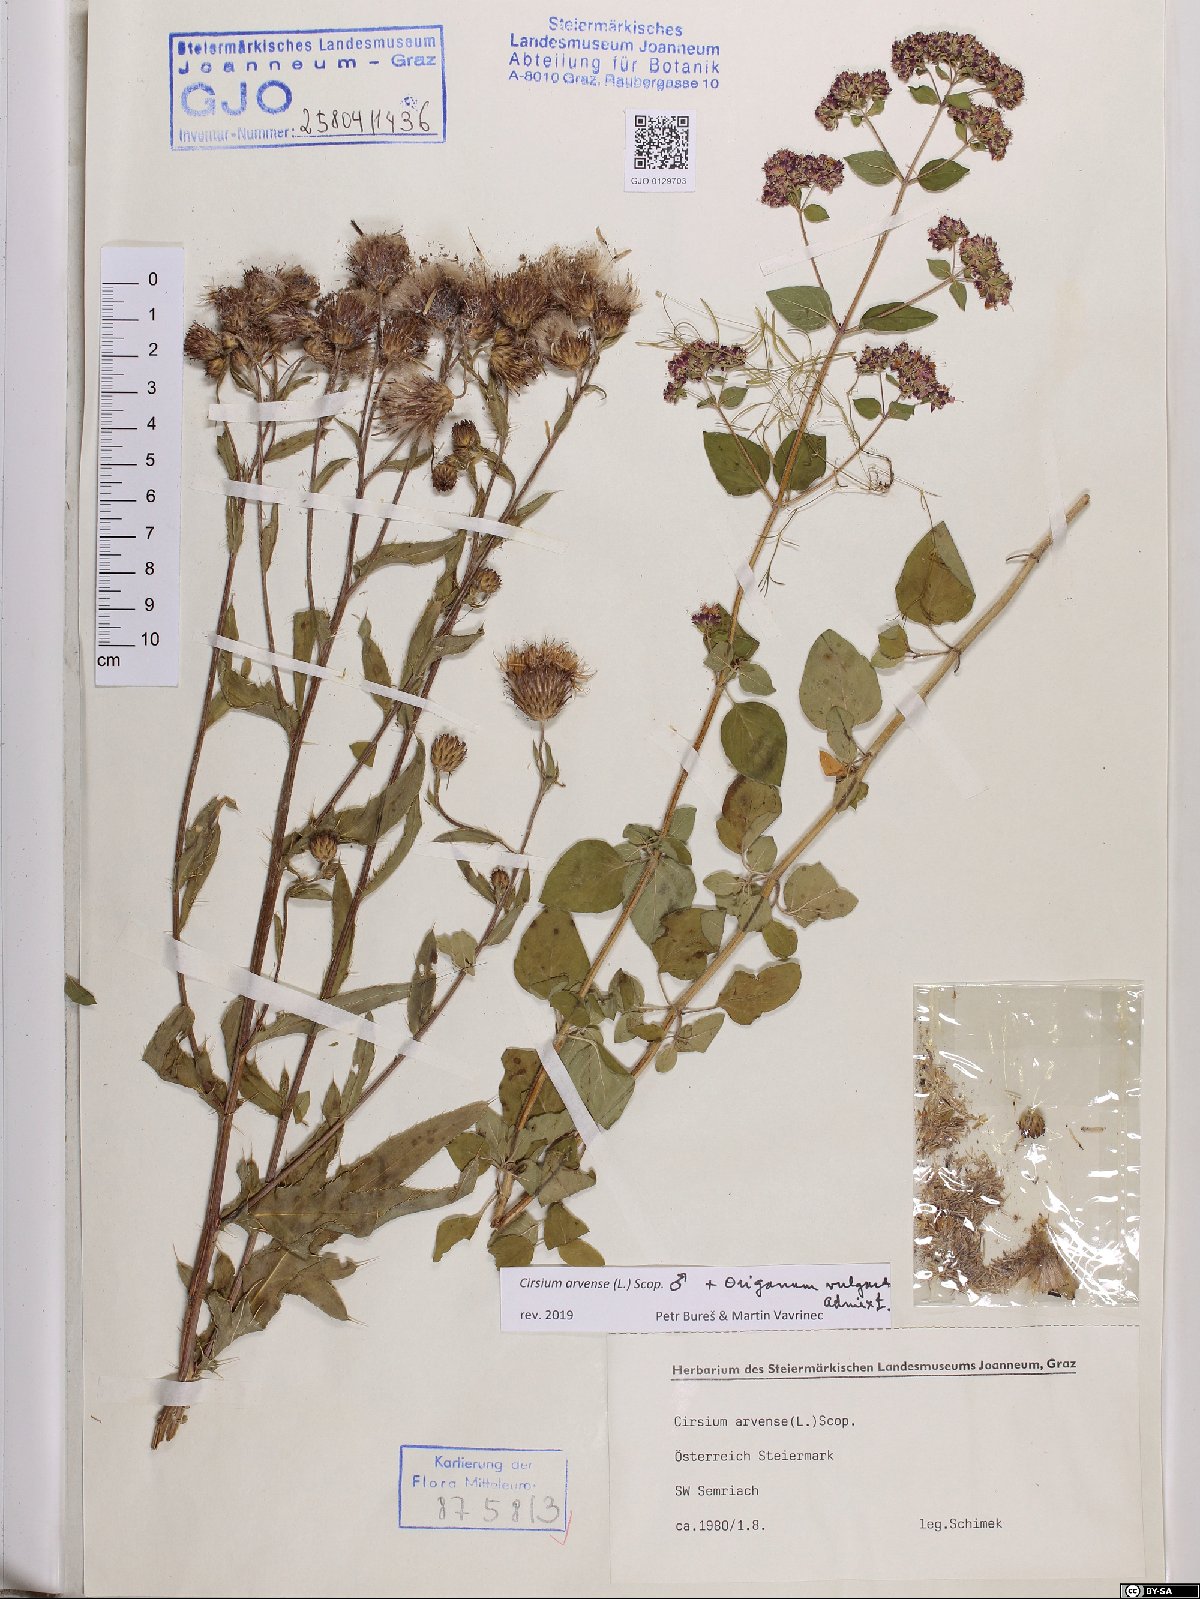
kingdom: Plantae
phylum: Tracheophyta
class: Magnoliopsida
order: Asterales
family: Asteraceae
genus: Cirsium
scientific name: Cirsium arvense
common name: Creeping thistle
